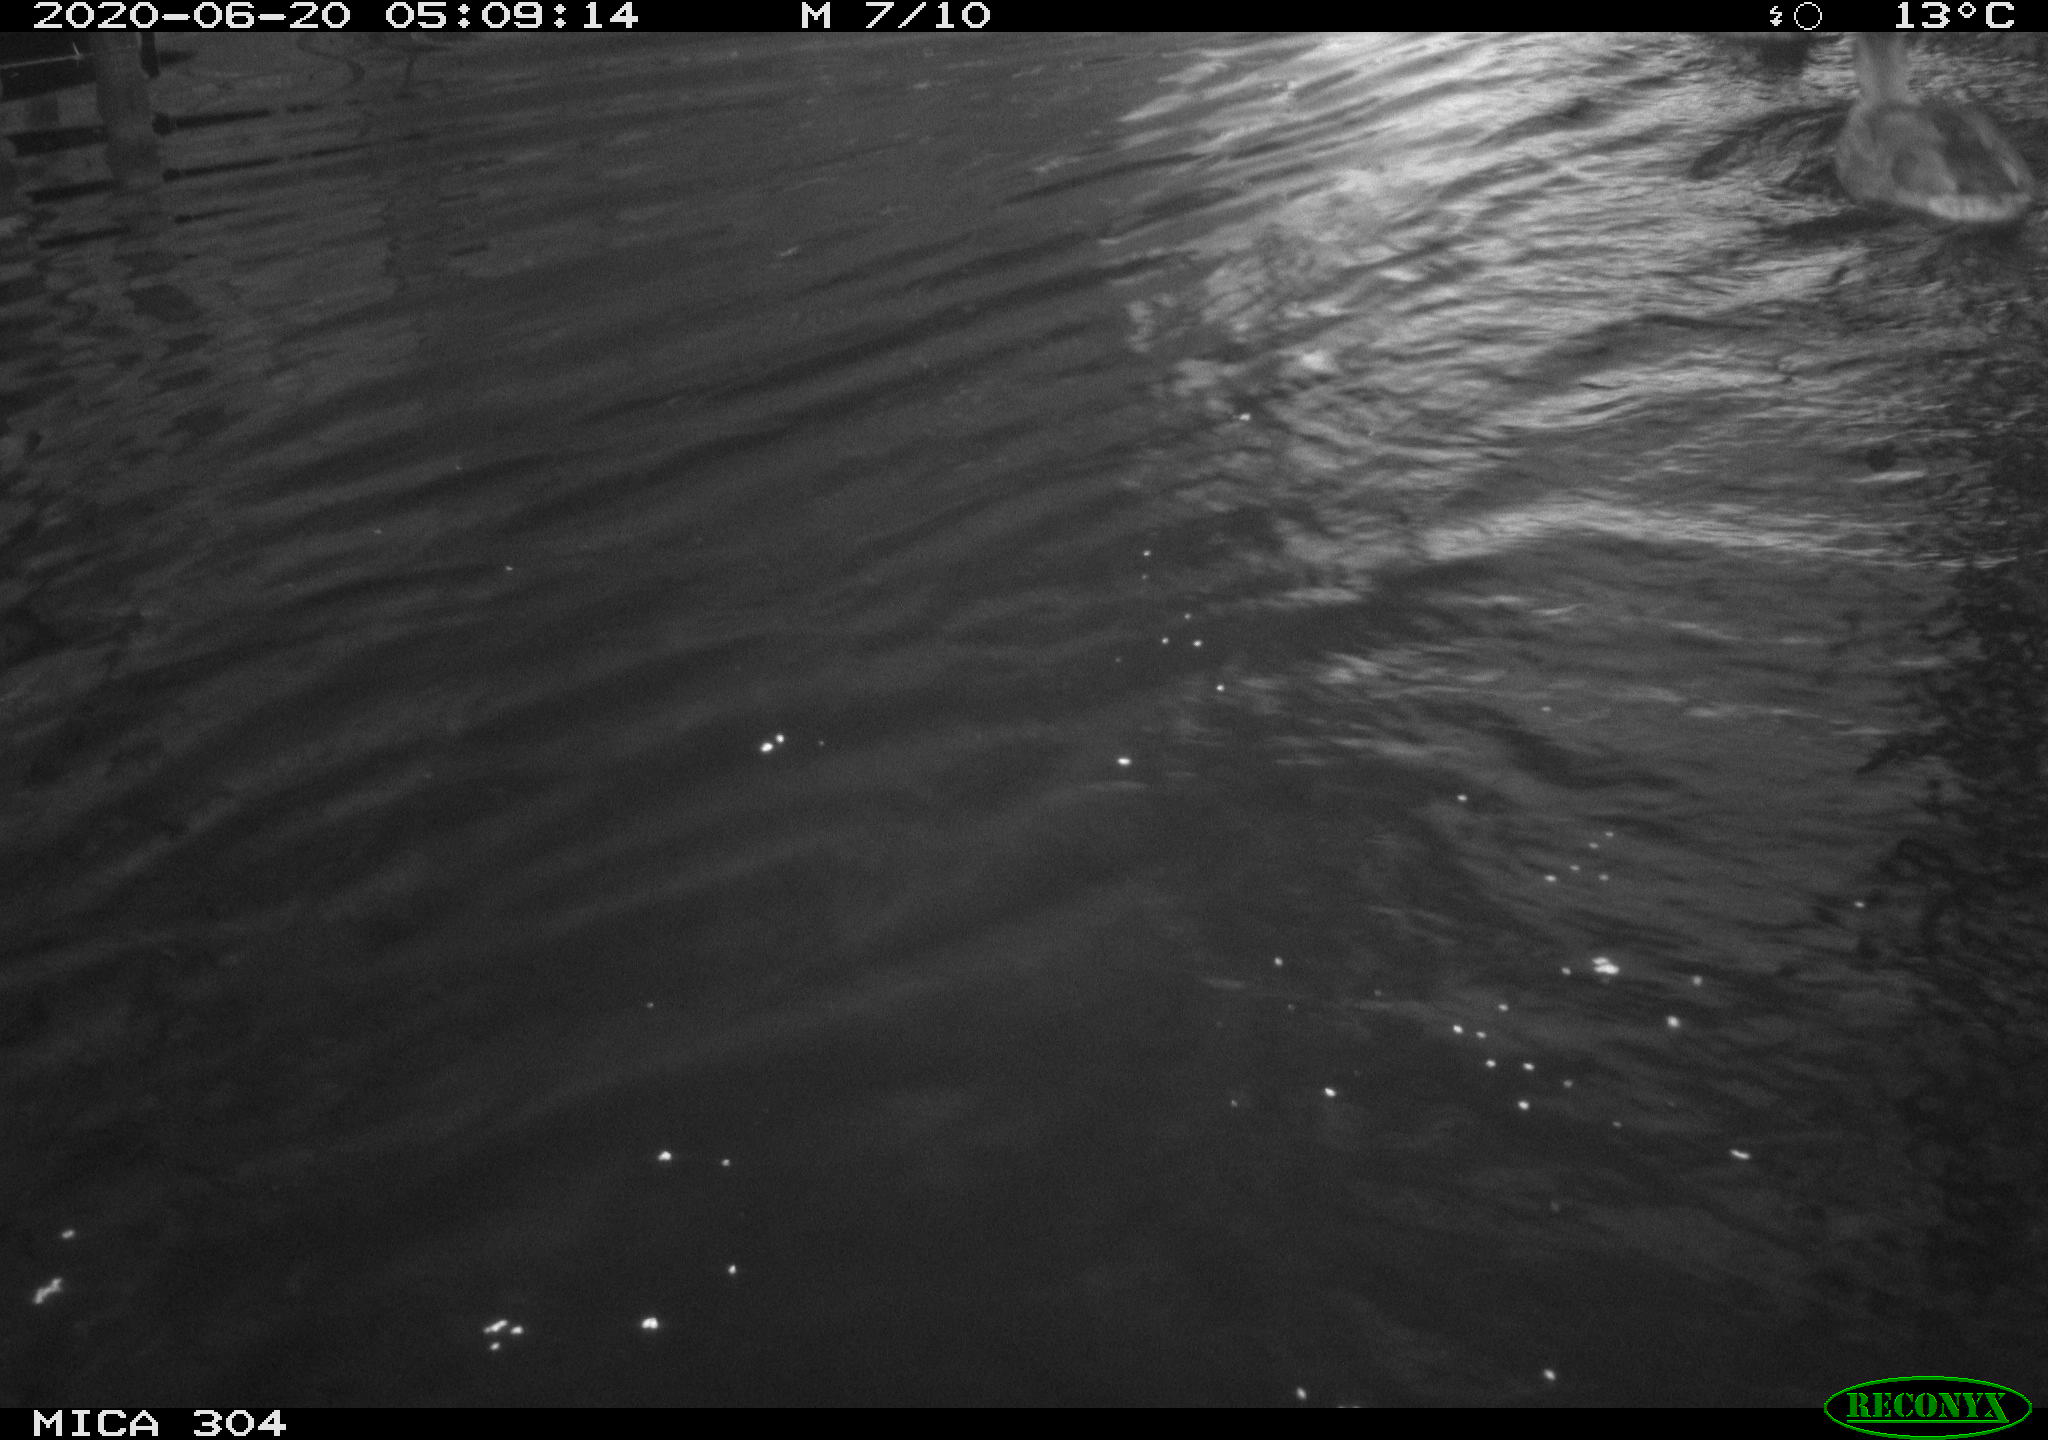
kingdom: Animalia
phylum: Chordata
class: Aves
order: Anseriformes
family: Anatidae
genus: Anas
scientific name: Anas platyrhynchos
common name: Mallard
